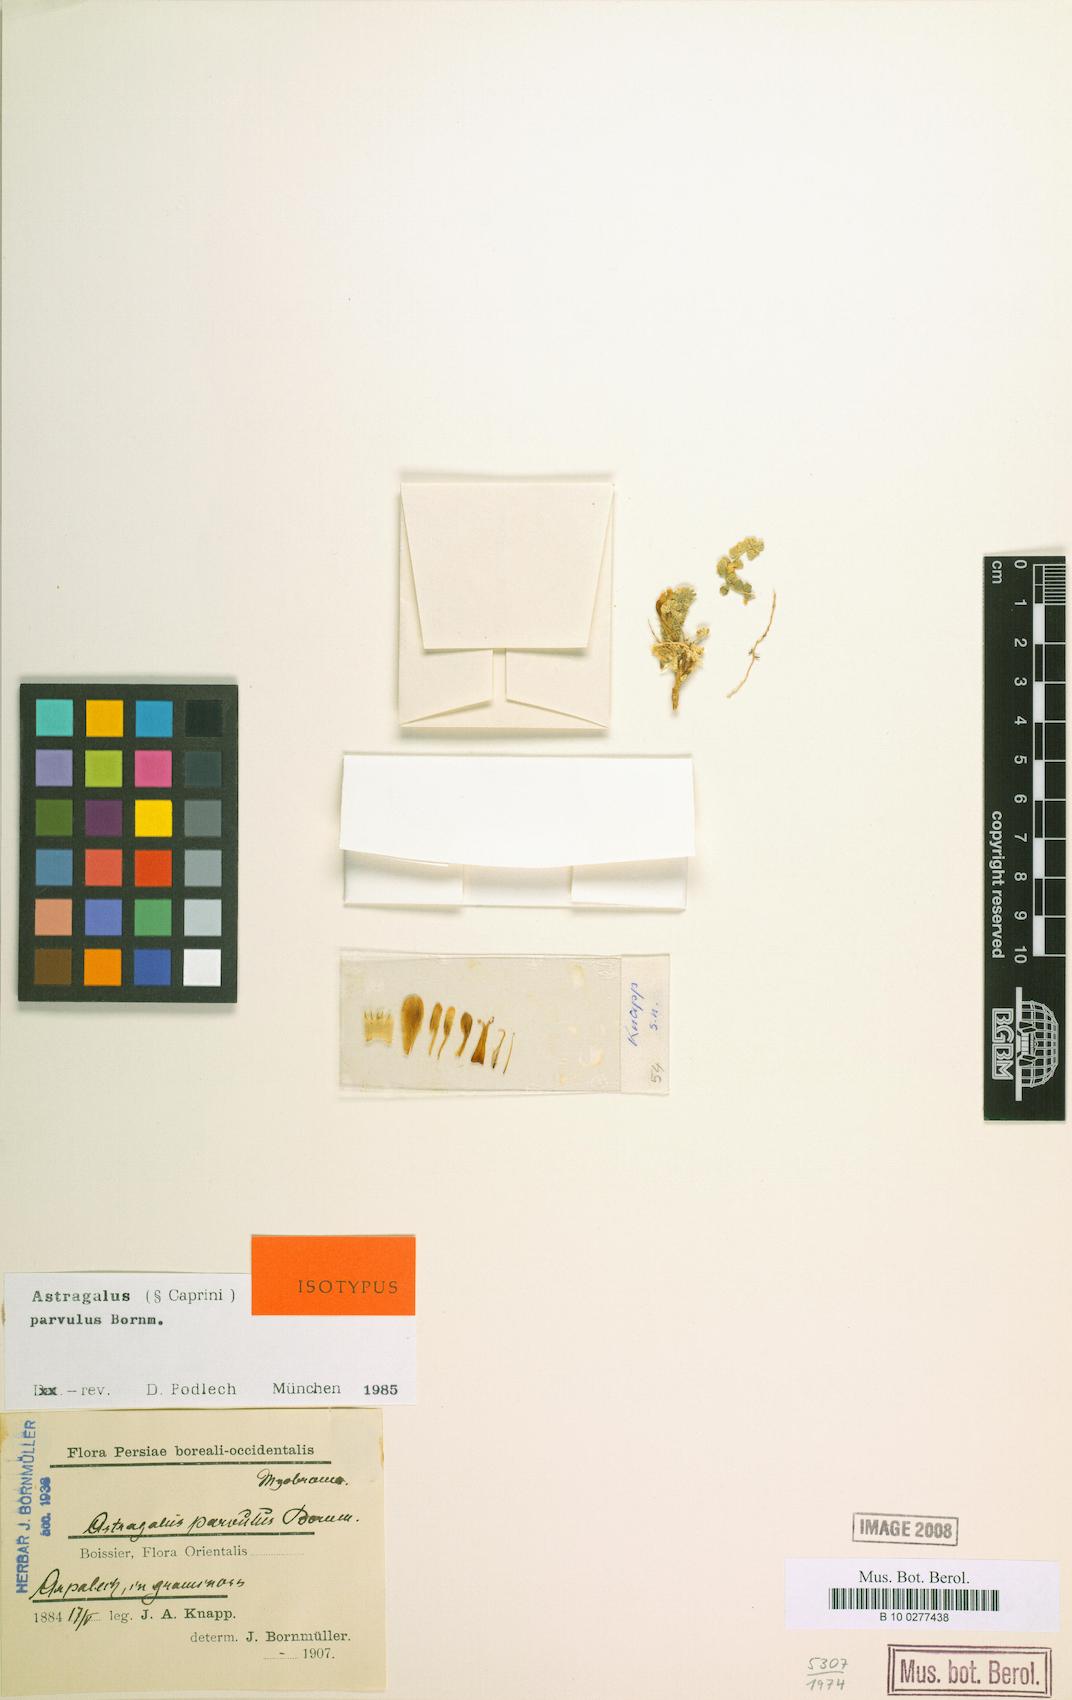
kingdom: Plantae
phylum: Tracheophyta
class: Magnoliopsida
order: Fabales
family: Fabaceae
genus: Astragalus
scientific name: Astragalus parvulus
